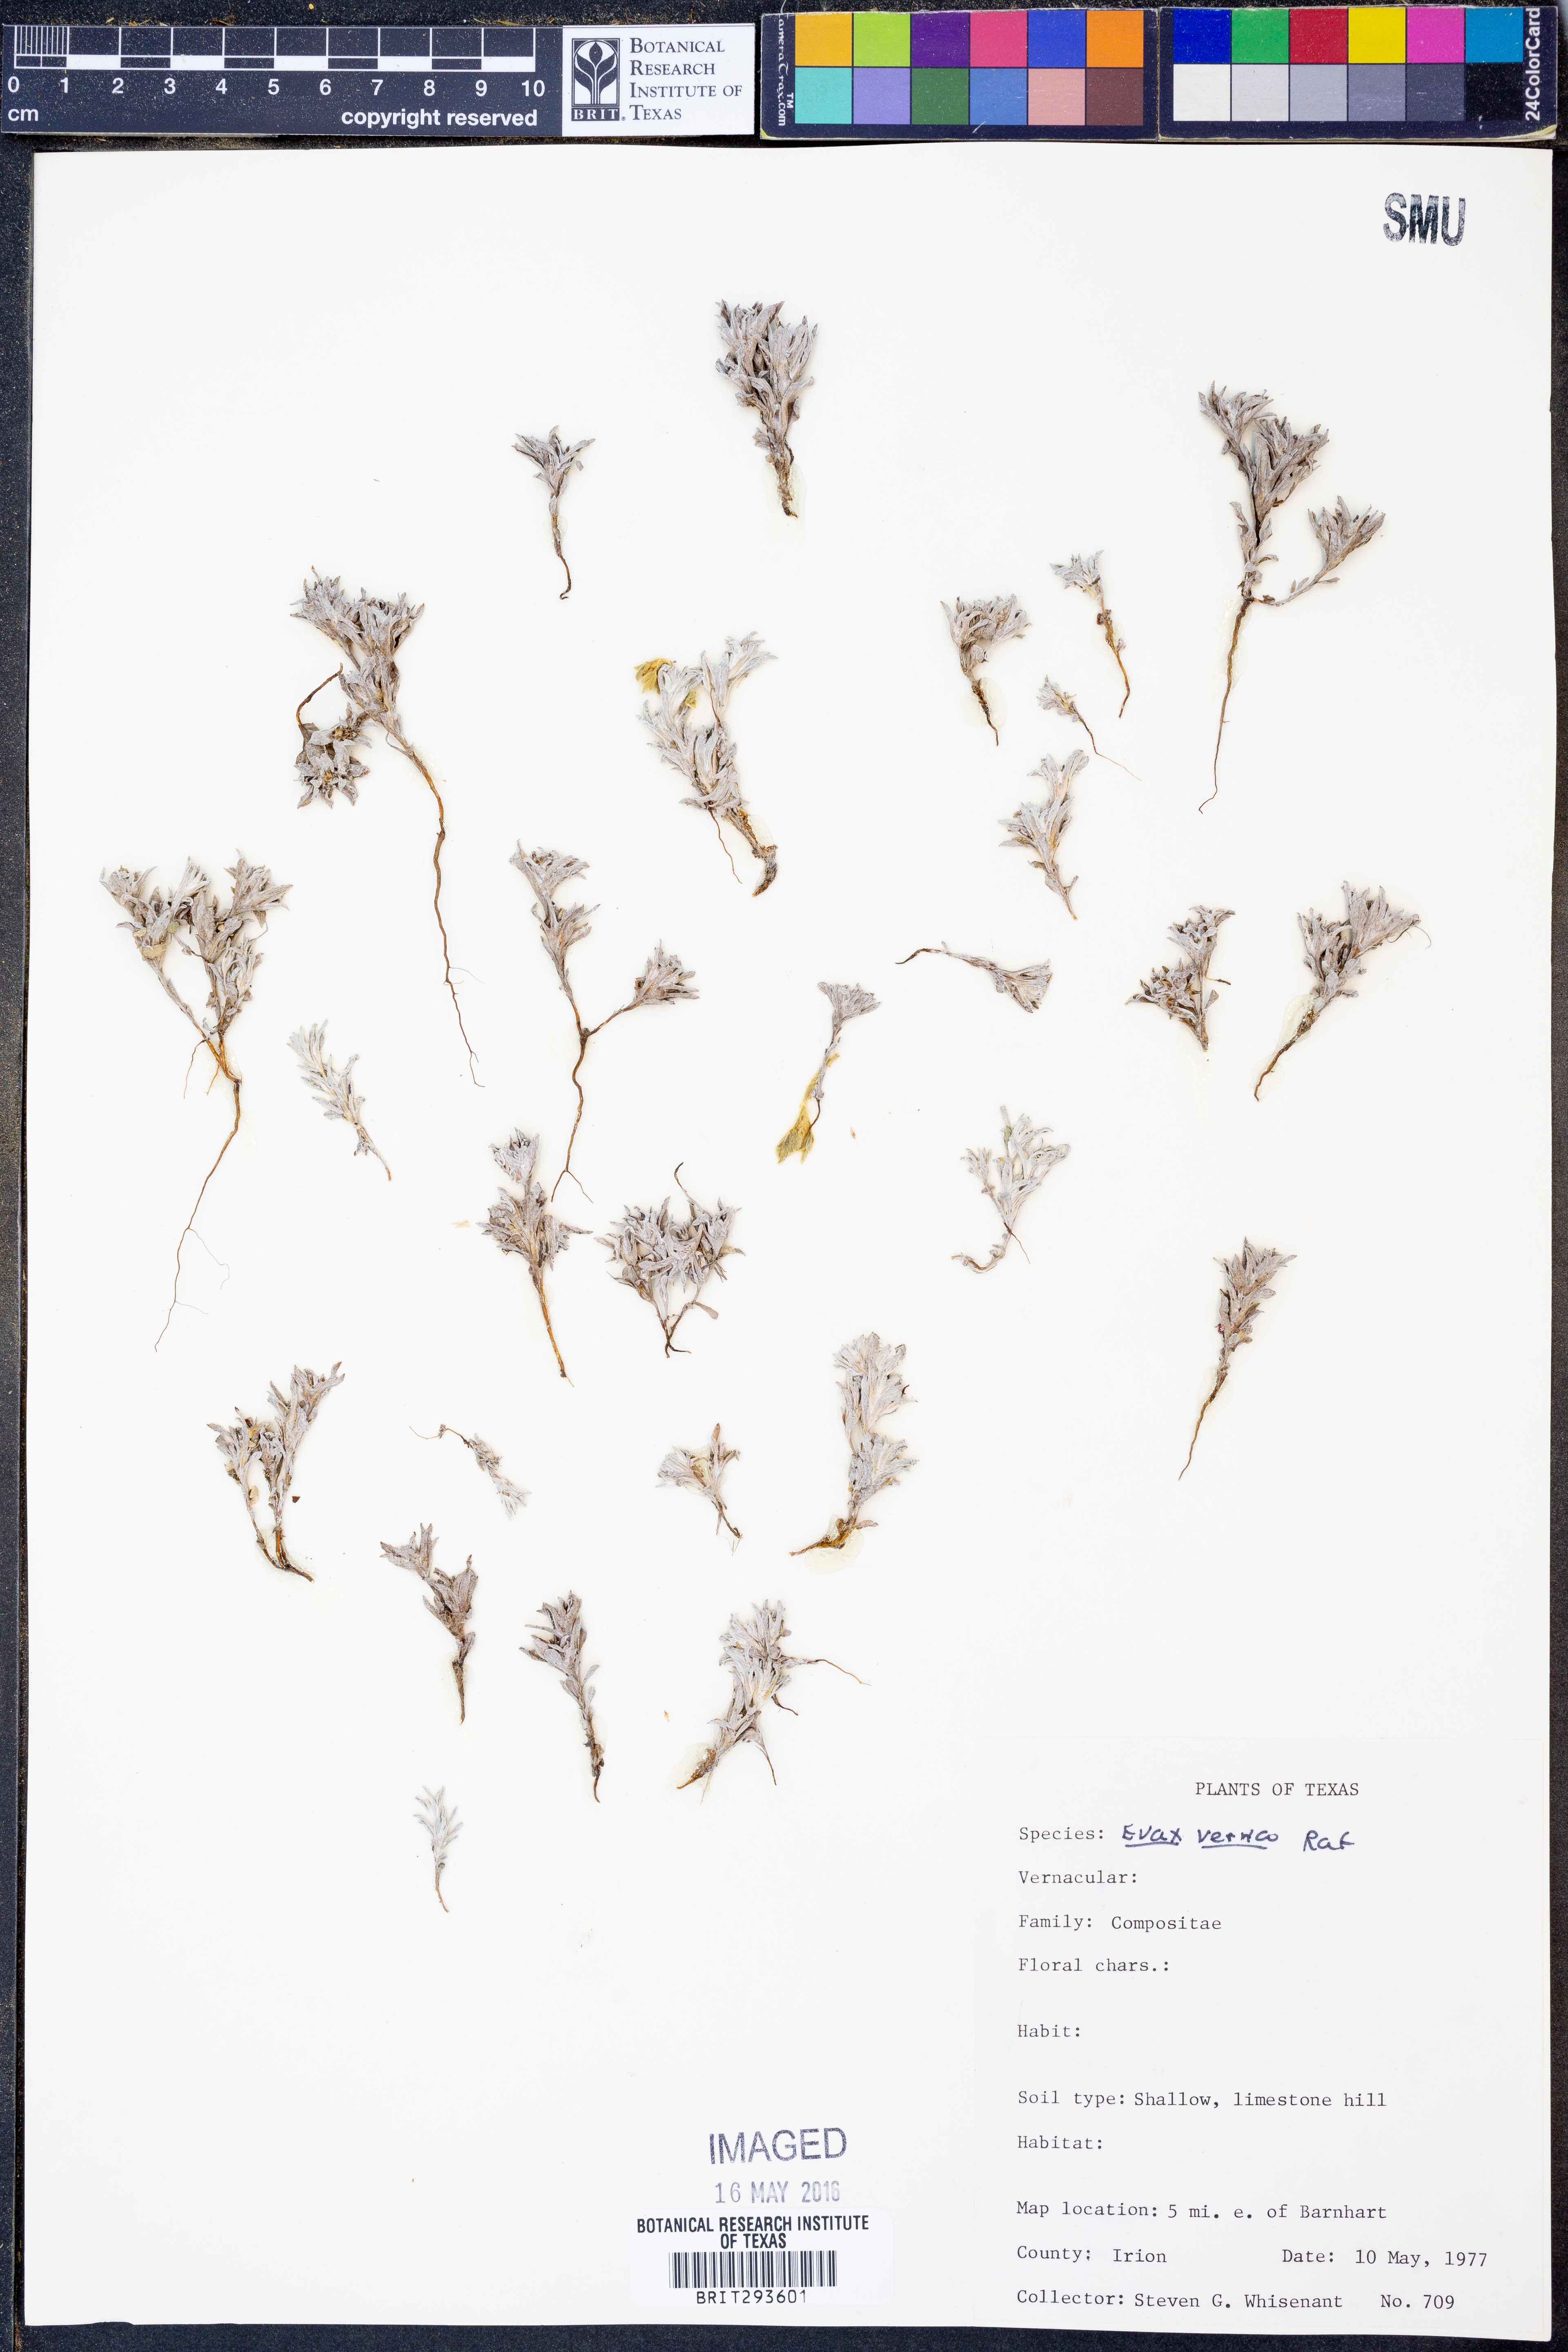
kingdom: Plantae
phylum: Tracheophyta
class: Magnoliopsida
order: Asterales
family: Asteraceae
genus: Diaperia
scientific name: Diaperia verna
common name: Many-stem rabbit-tobacco
